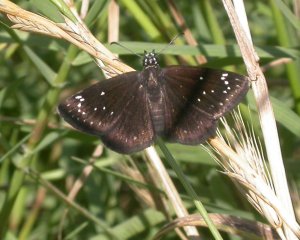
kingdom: Animalia
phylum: Arthropoda
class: Insecta
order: Lepidoptera
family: Hesperiidae
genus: Pholisora
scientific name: Pholisora catullus
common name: Common Sootywing
